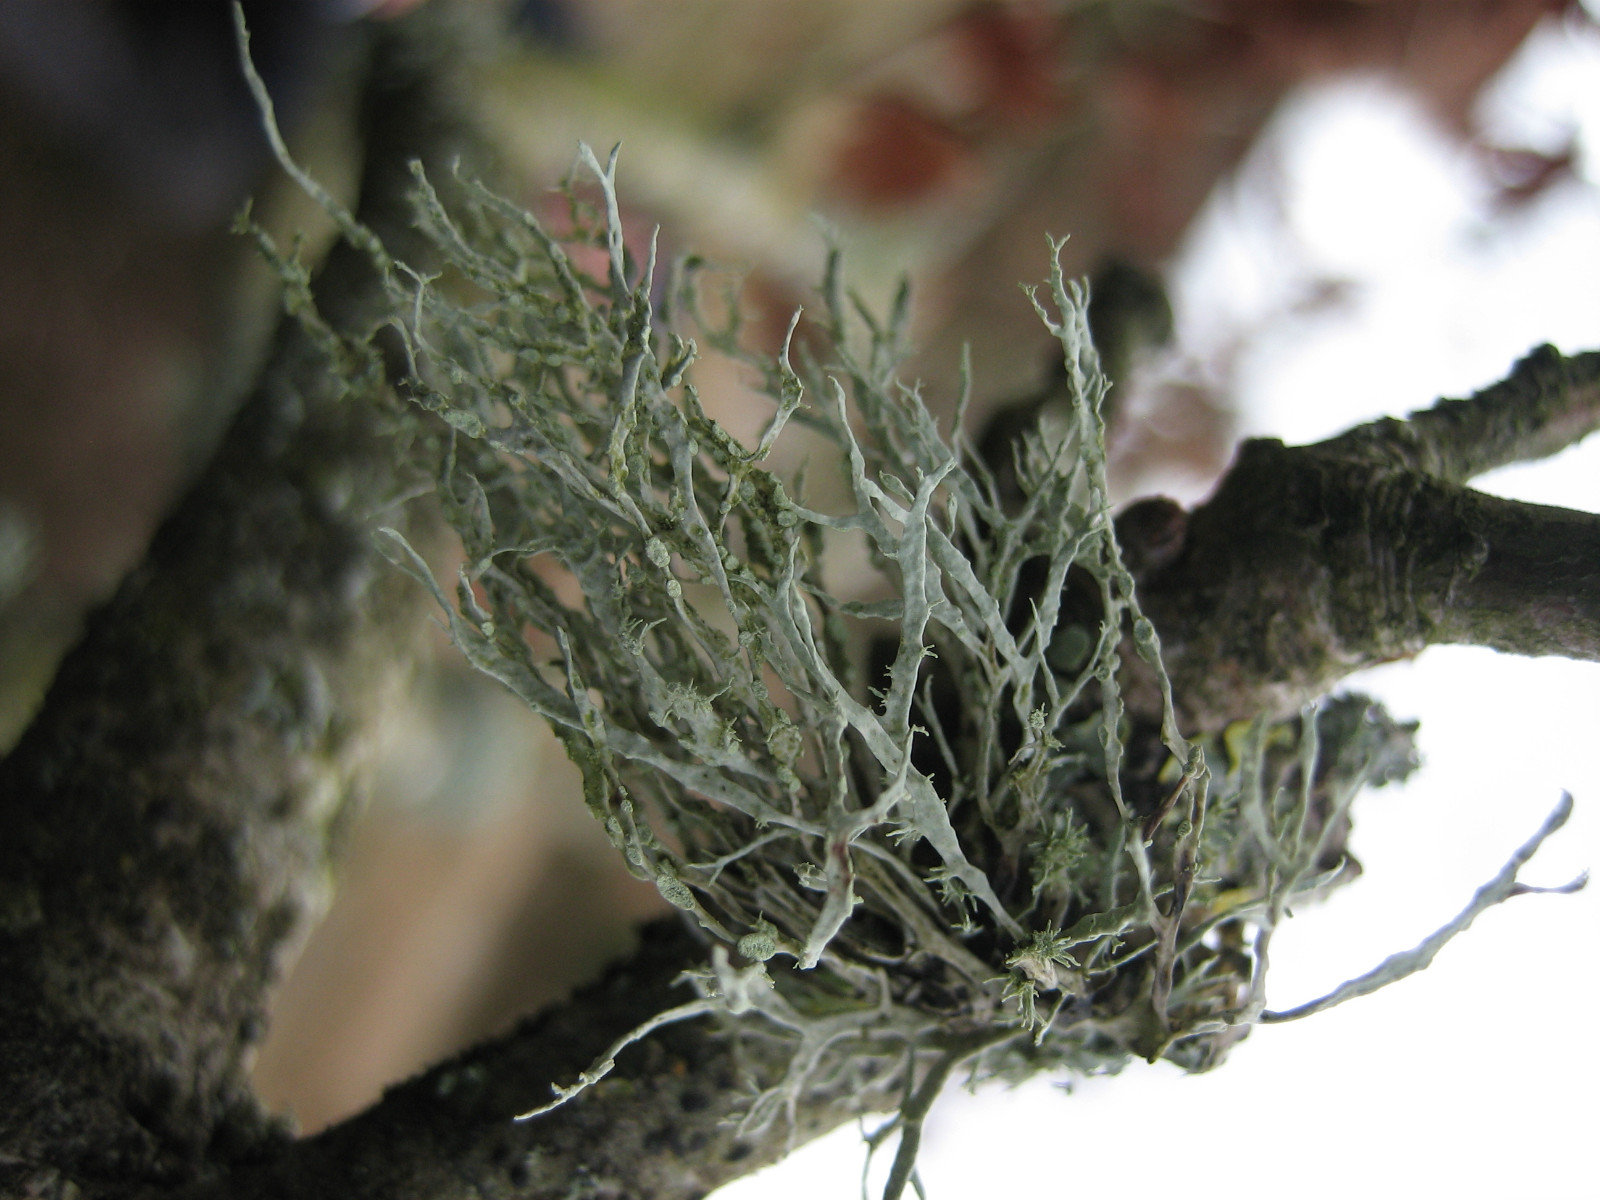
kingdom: Fungi
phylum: Ascomycota
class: Lecanoromycetes
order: Lecanorales
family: Ramalinaceae
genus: Ramalina
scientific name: Ramalina farinacea
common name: melet grenlav
